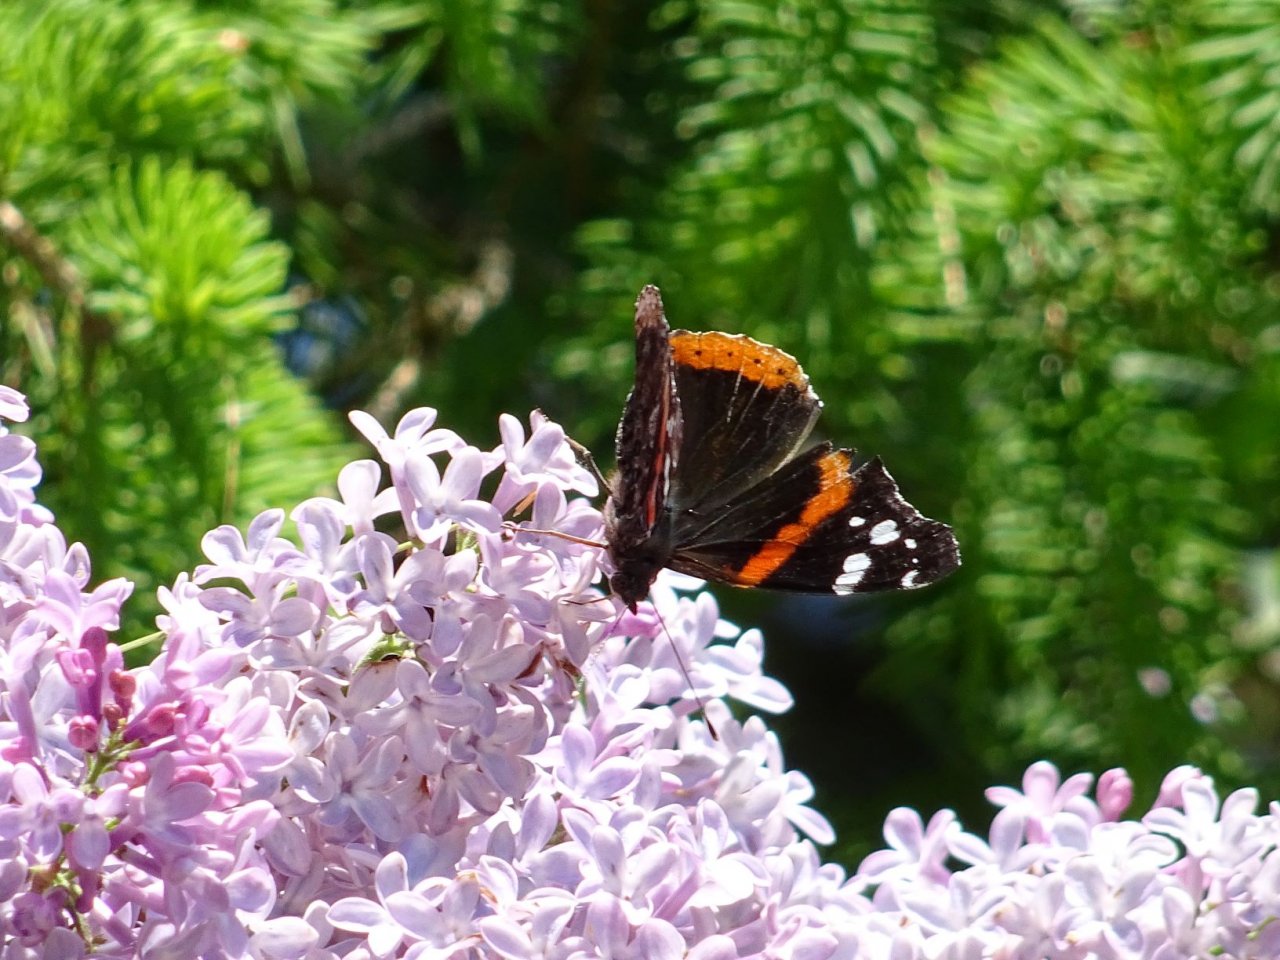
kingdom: Animalia
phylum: Arthropoda
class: Insecta
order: Lepidoptera
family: Nymphalidae
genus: Vanessa
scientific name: Vanessa atalanta
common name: Red Admiral
